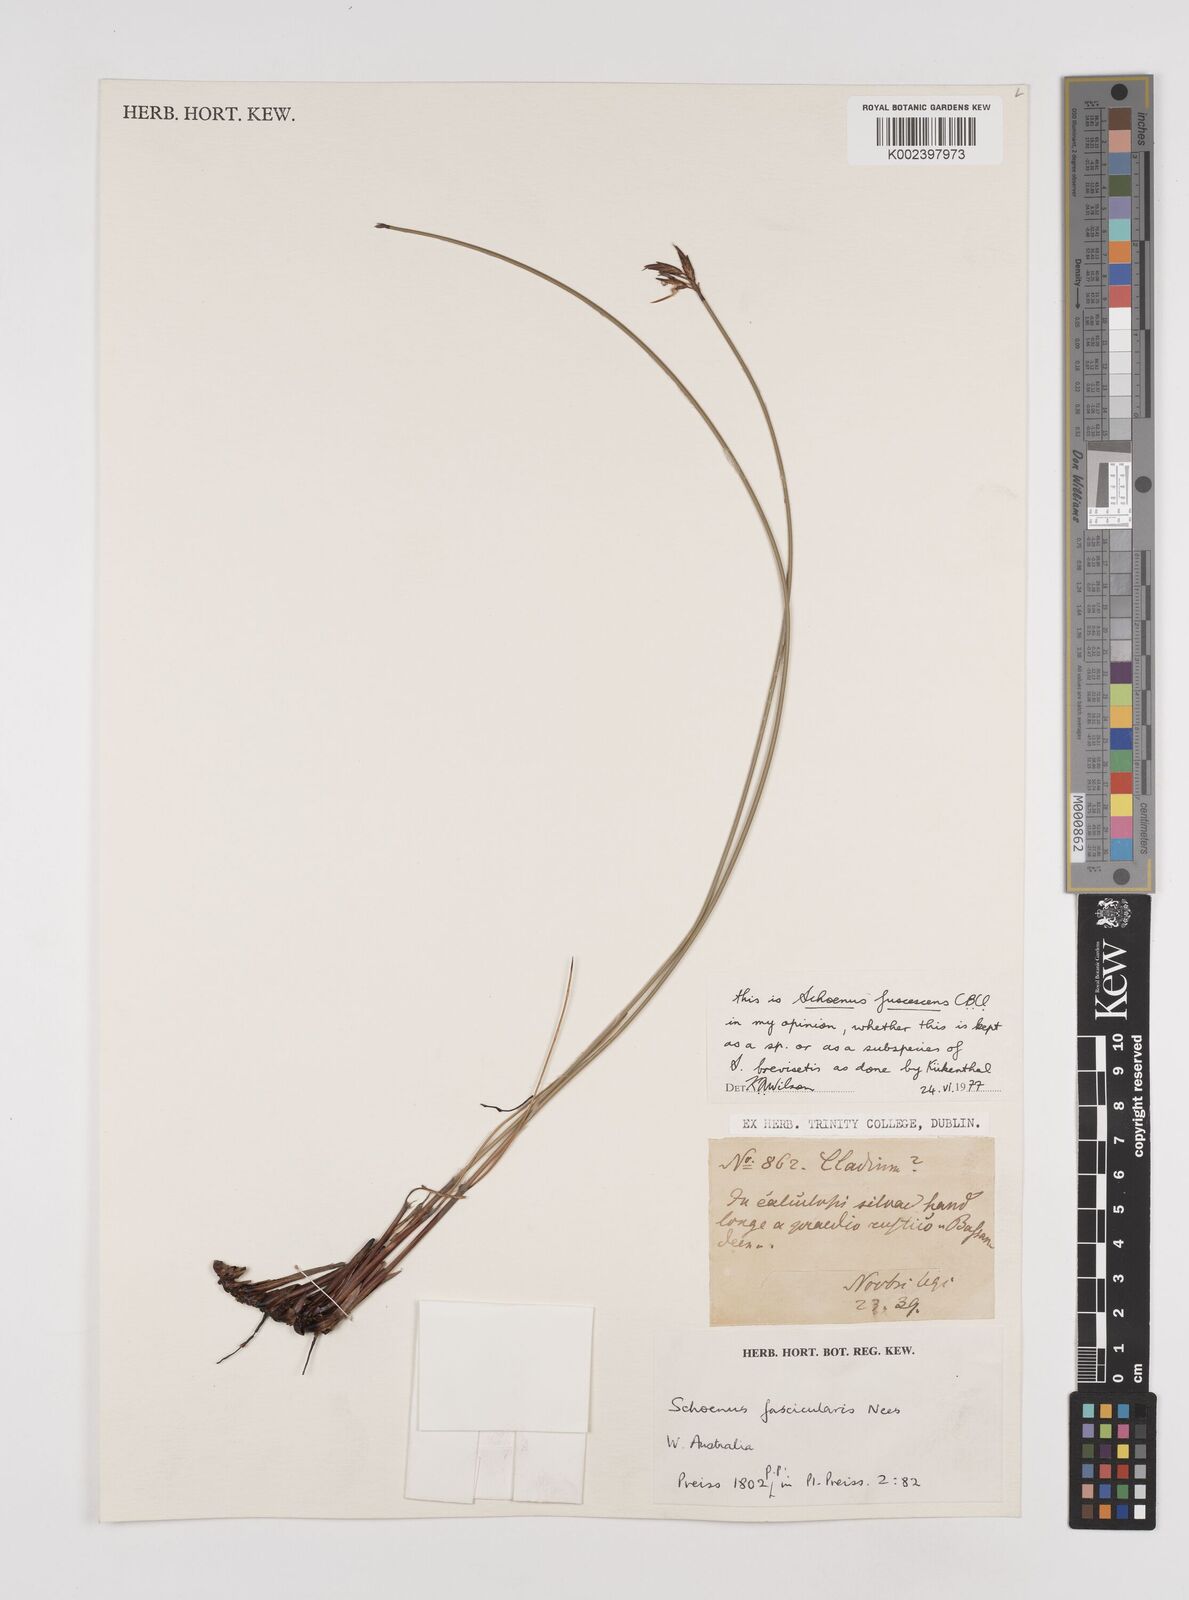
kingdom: Plantae
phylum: Tracheophyta
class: Liliopsida
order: Poales
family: Cyperaceae
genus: Schoenus
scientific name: Schoenus brevisetis
